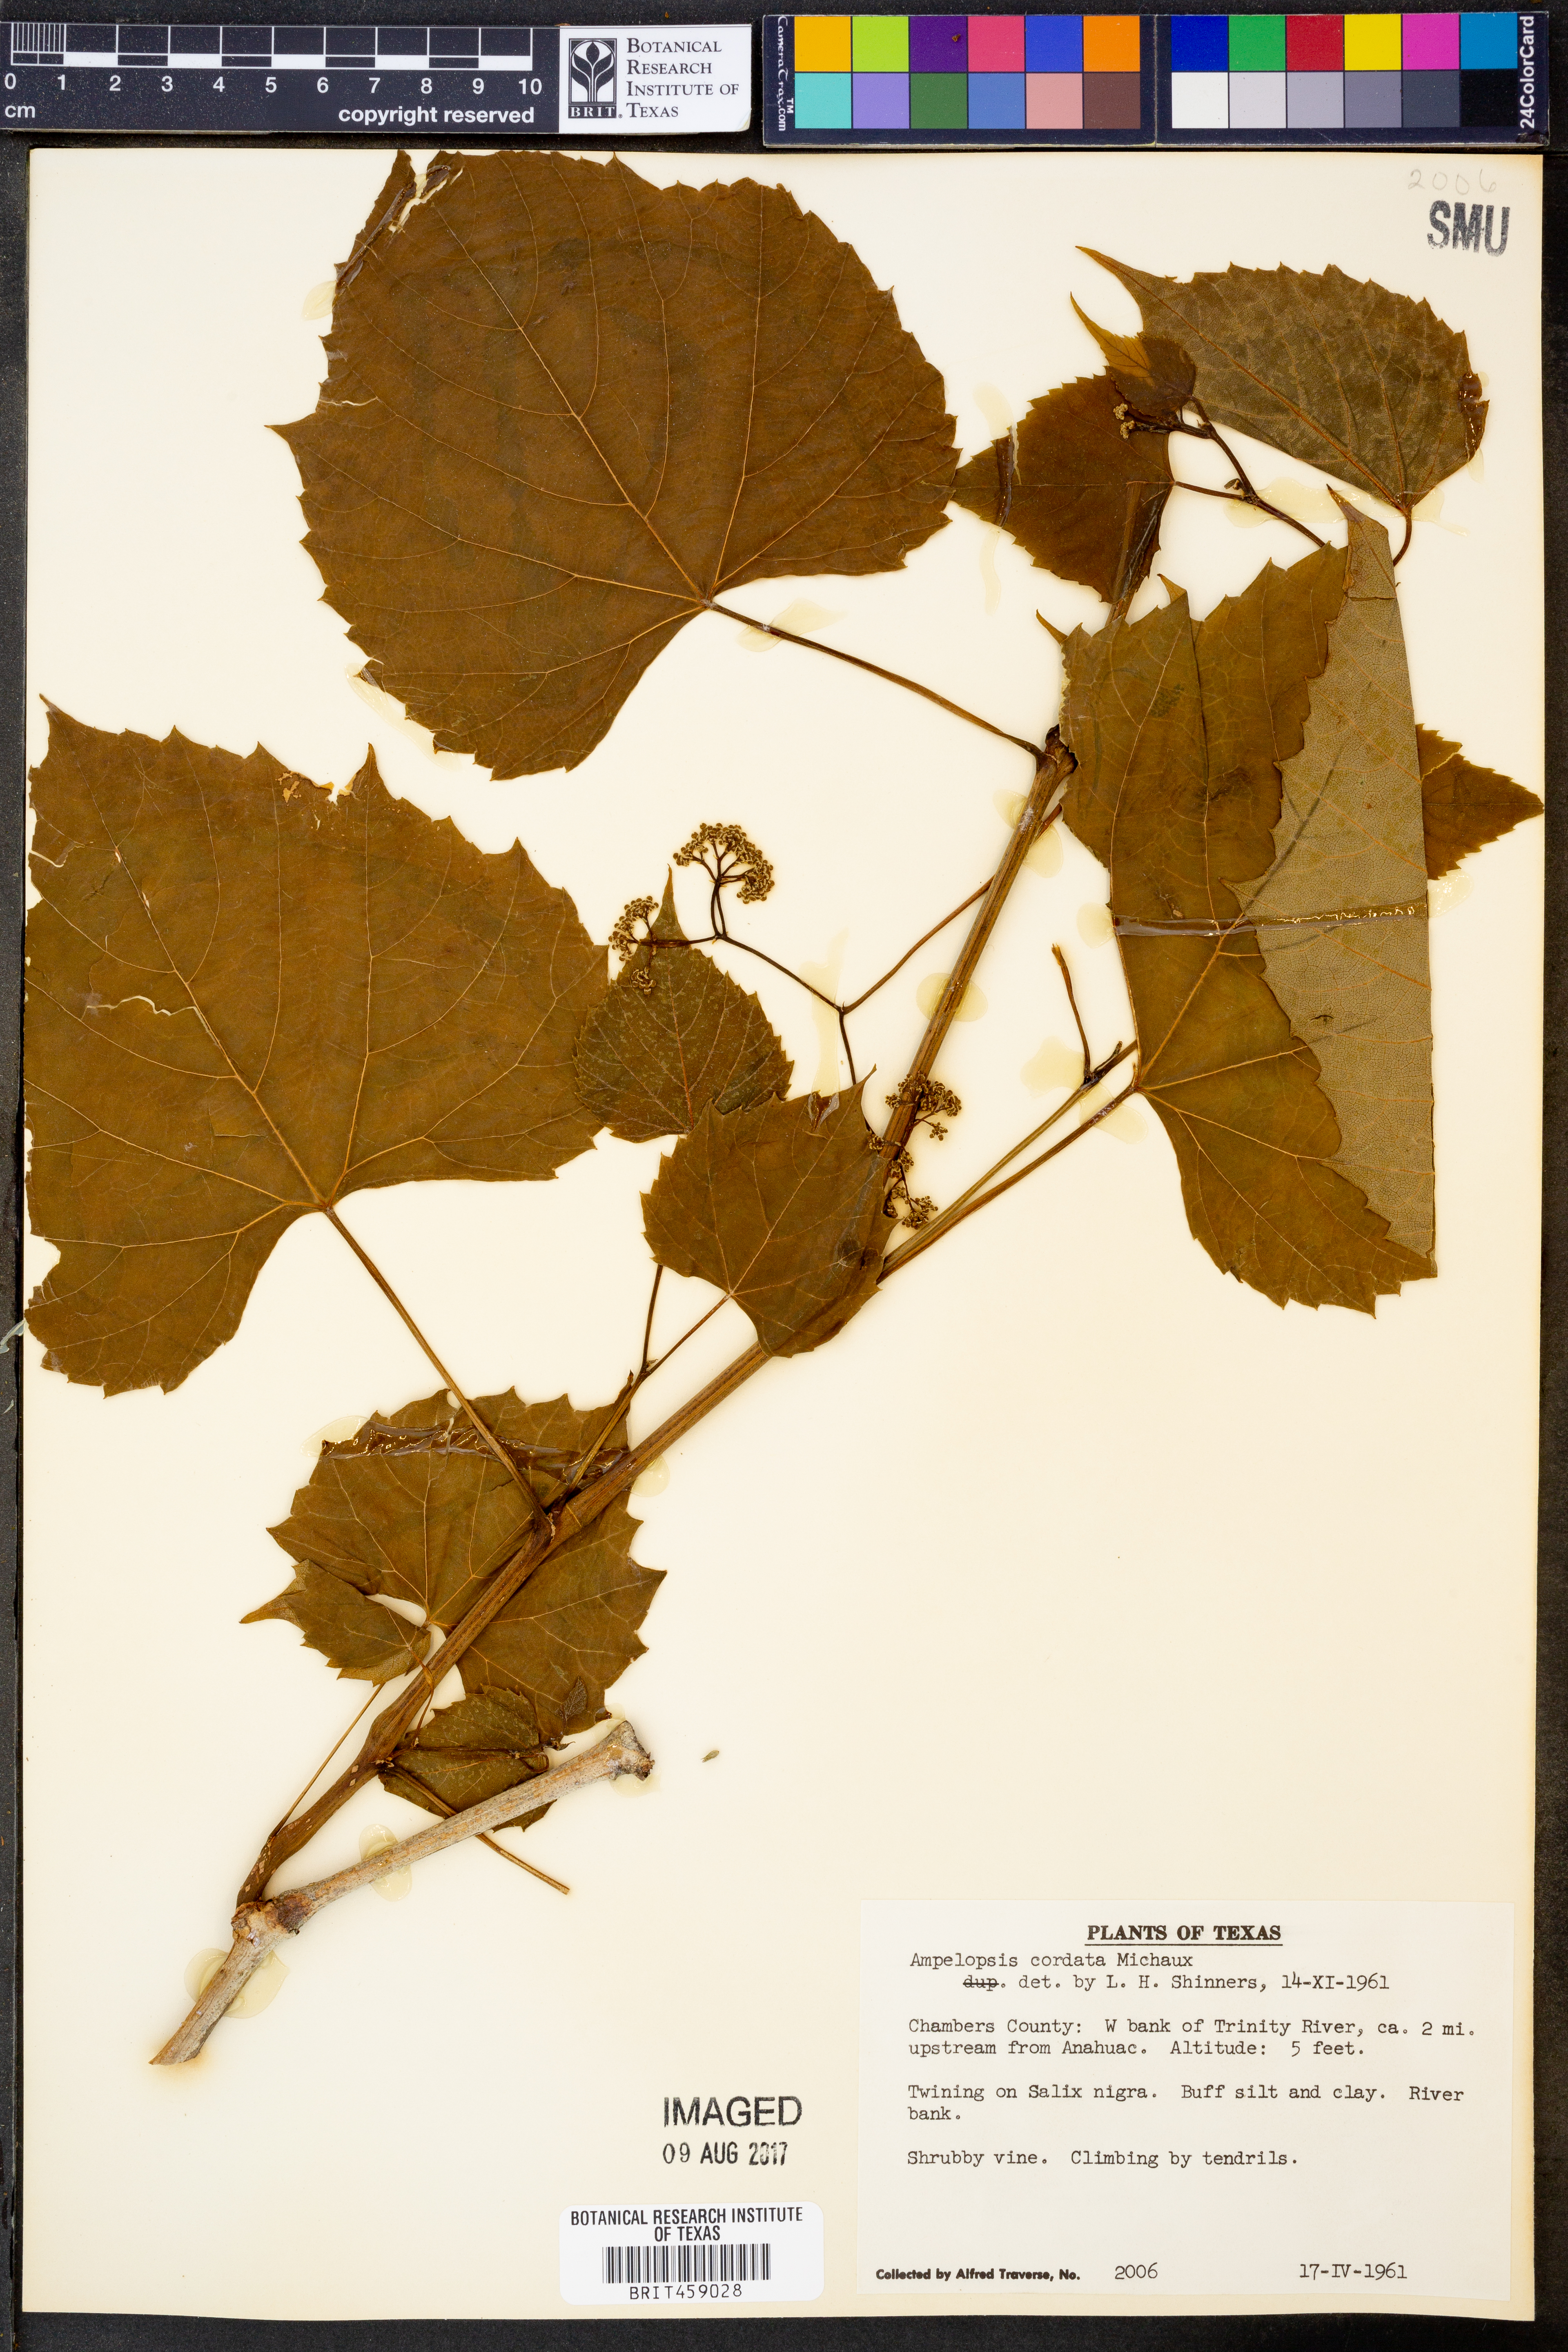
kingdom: Plantae
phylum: Tracheophyta
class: Magnoliopsida
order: Vitales
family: Vitaceae
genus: Ampelopsis
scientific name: Ampelopsis cordata
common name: Heart-leaf ampelopsis
